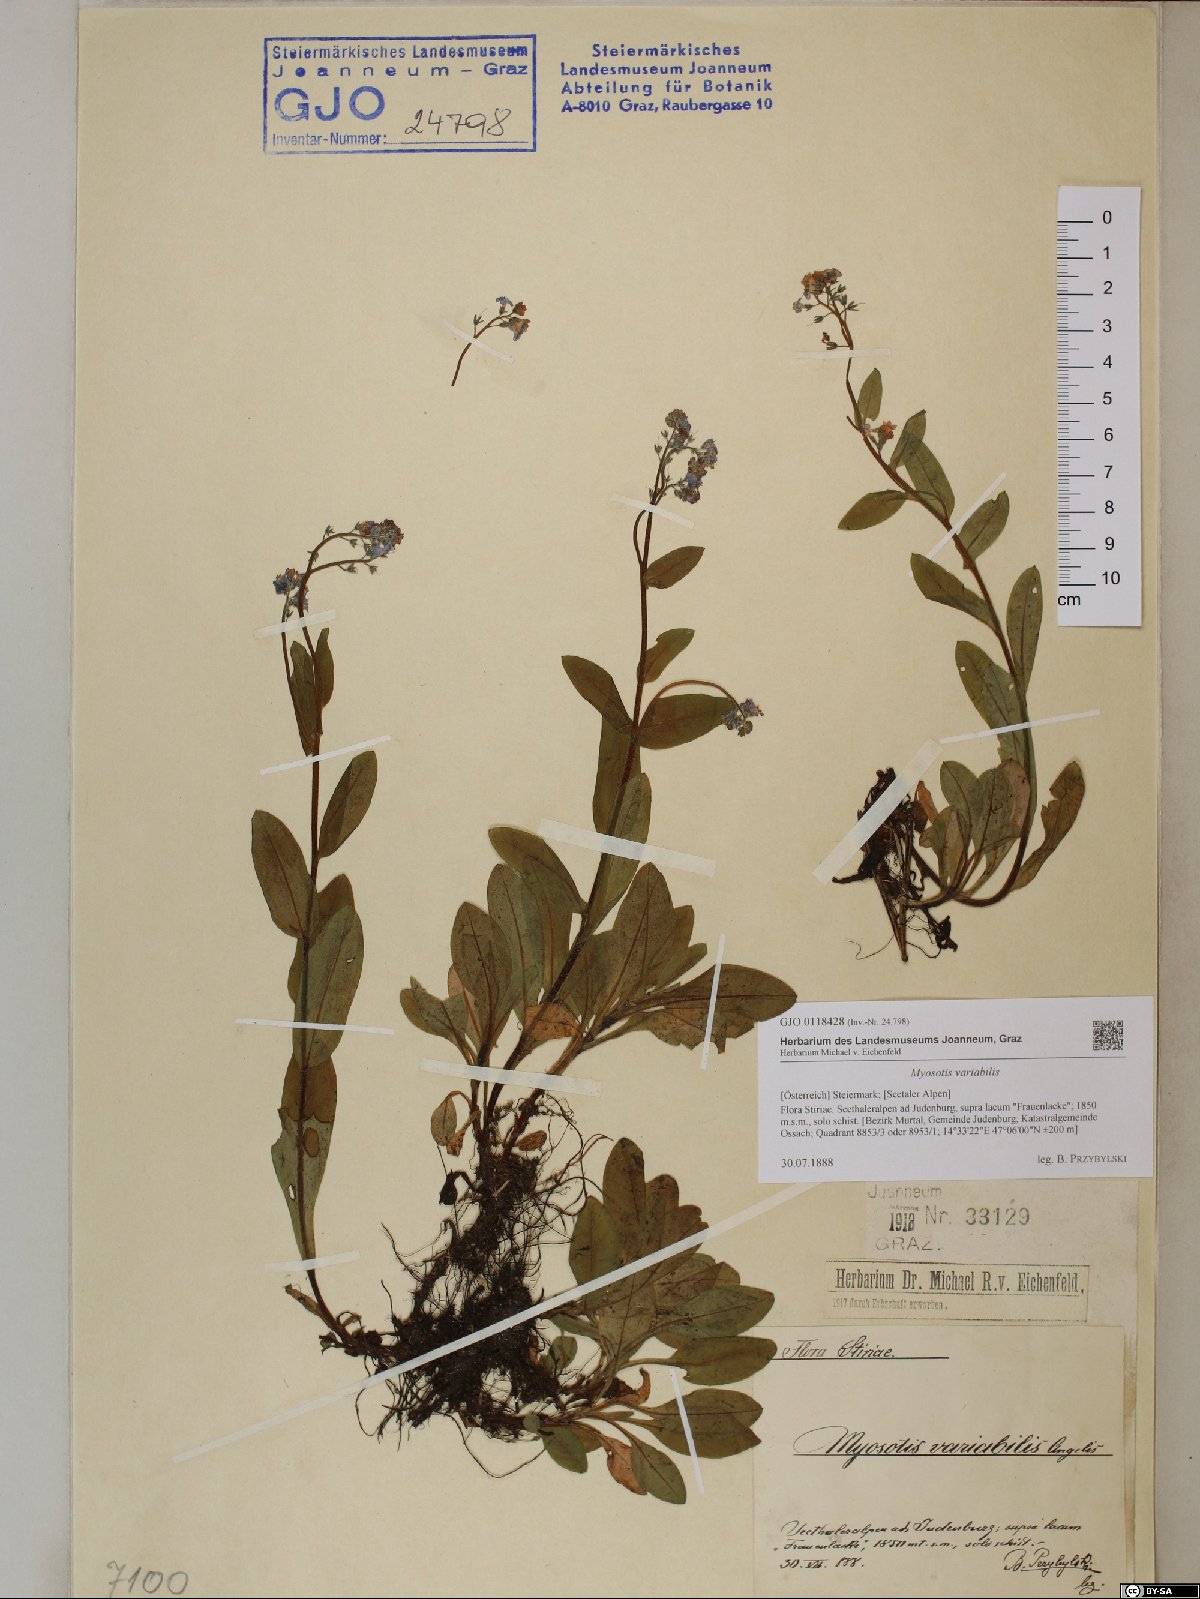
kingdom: Plantae
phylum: Tracheophyta
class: Magnoliopsida
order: Boraginales
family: Boraginaceae
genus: Myosotis
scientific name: Myosotis decumbens
